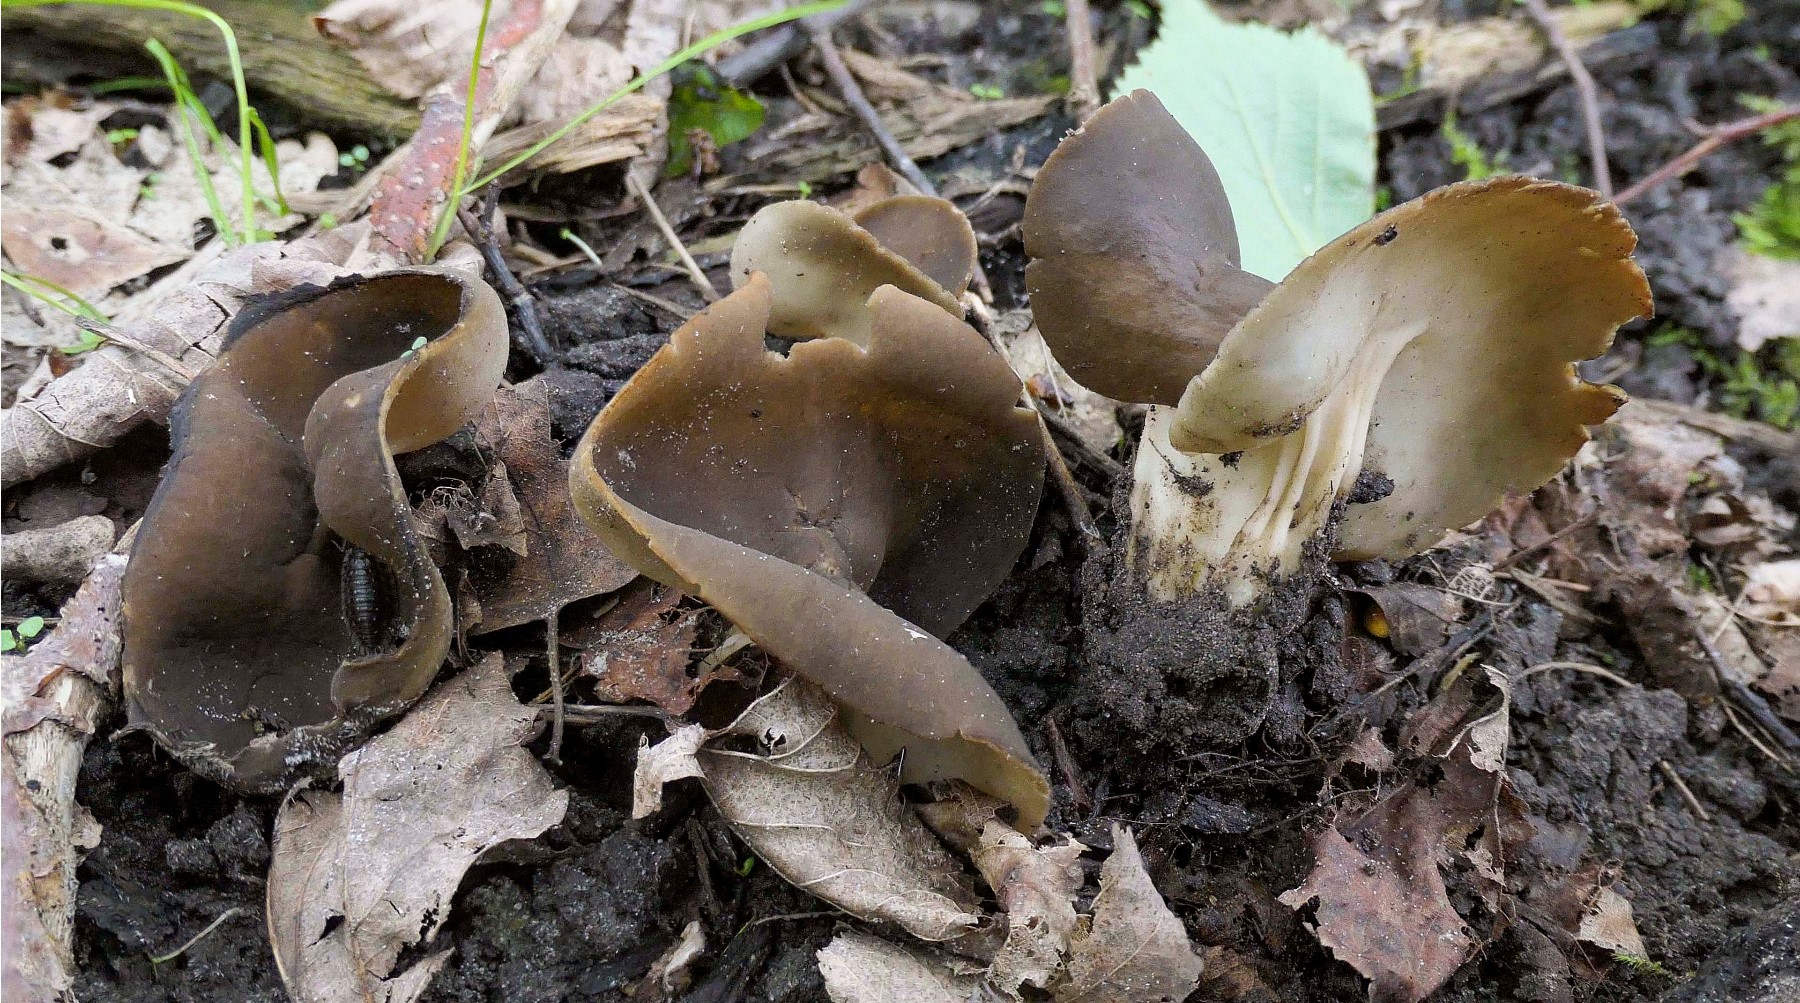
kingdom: Fungi
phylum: Ascomycota
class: Pezizomycetes
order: Pezizales
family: Helvellaceae
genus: Helvella
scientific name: Helvella solitaria
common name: Quélets foldhat
